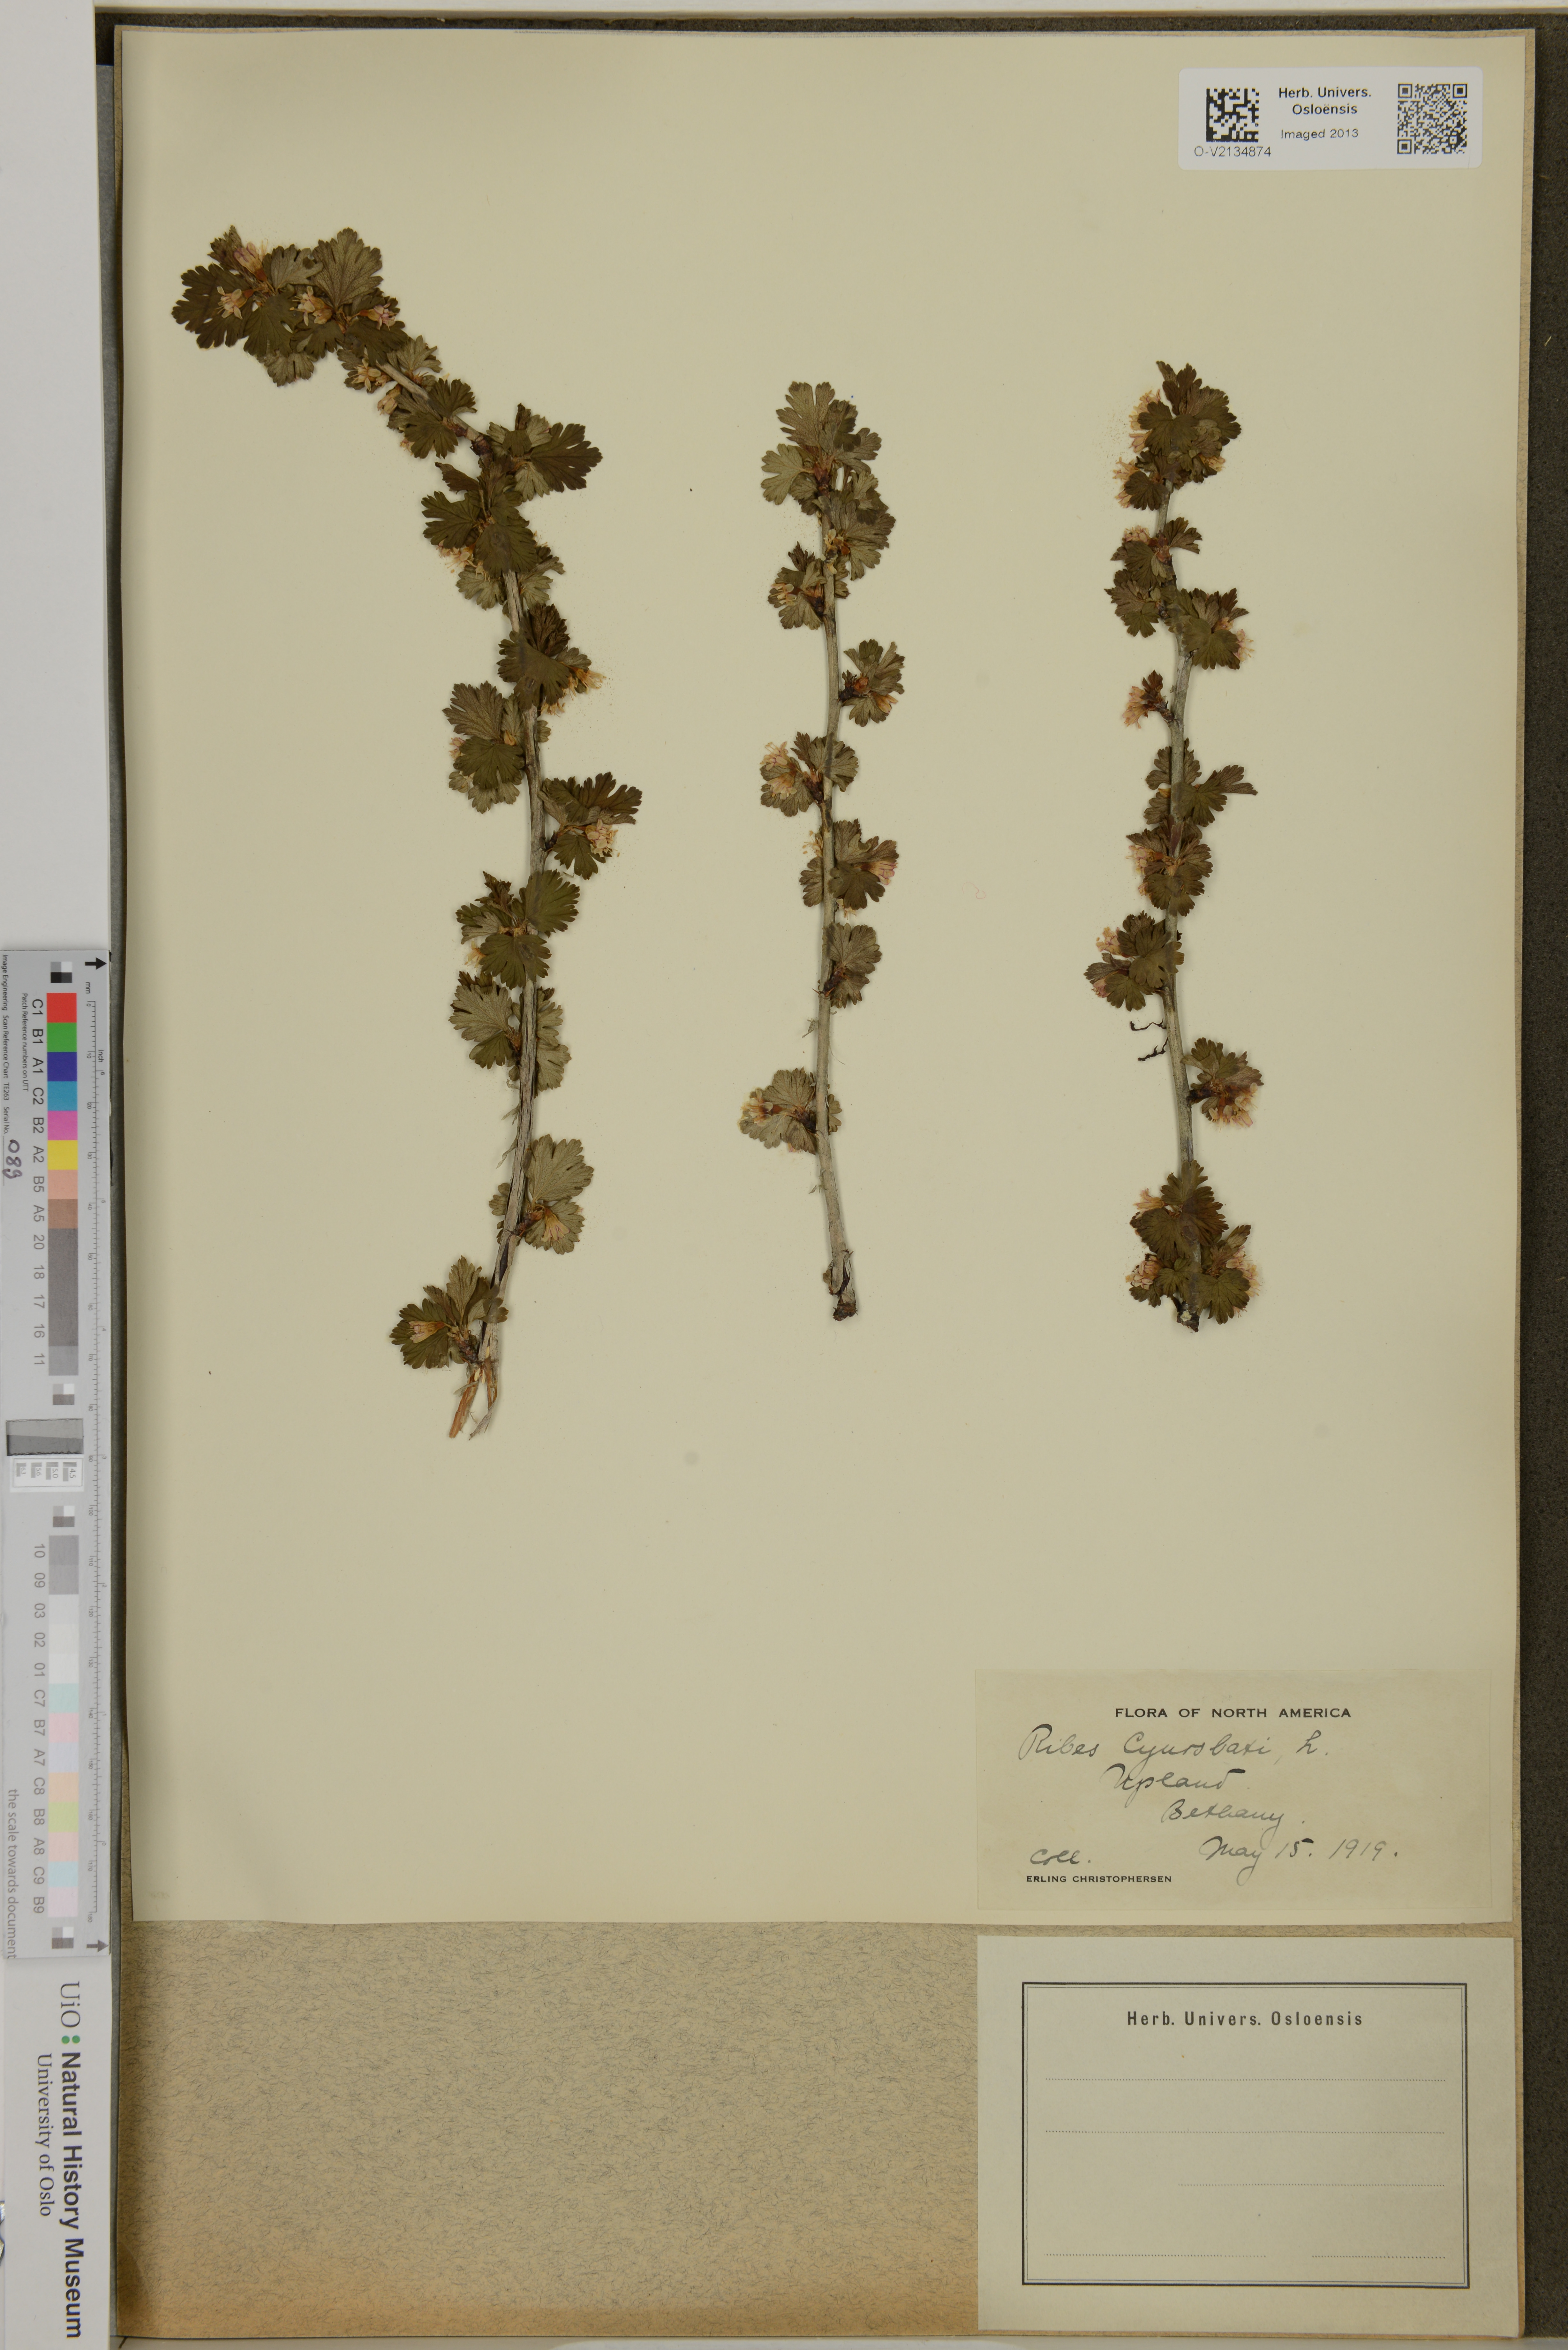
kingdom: Plantae
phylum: Tracheophyta
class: Magnoliopsida
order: Saxifragales
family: Grossulariaceae
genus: Ribes
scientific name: Ribes cynosbati
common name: American gooseberry
